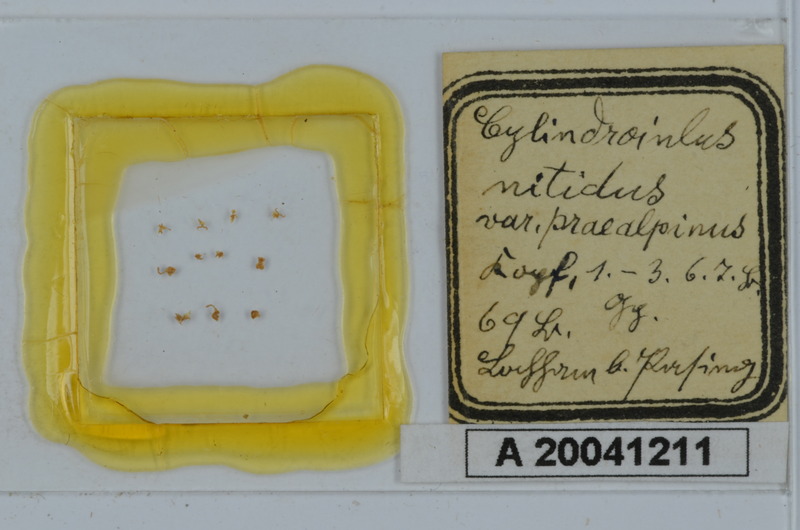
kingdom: Animalia
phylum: Arthropoda
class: Diplopoda
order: Julida
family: Julidae
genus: Allajulus
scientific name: Allajulus nitidus
